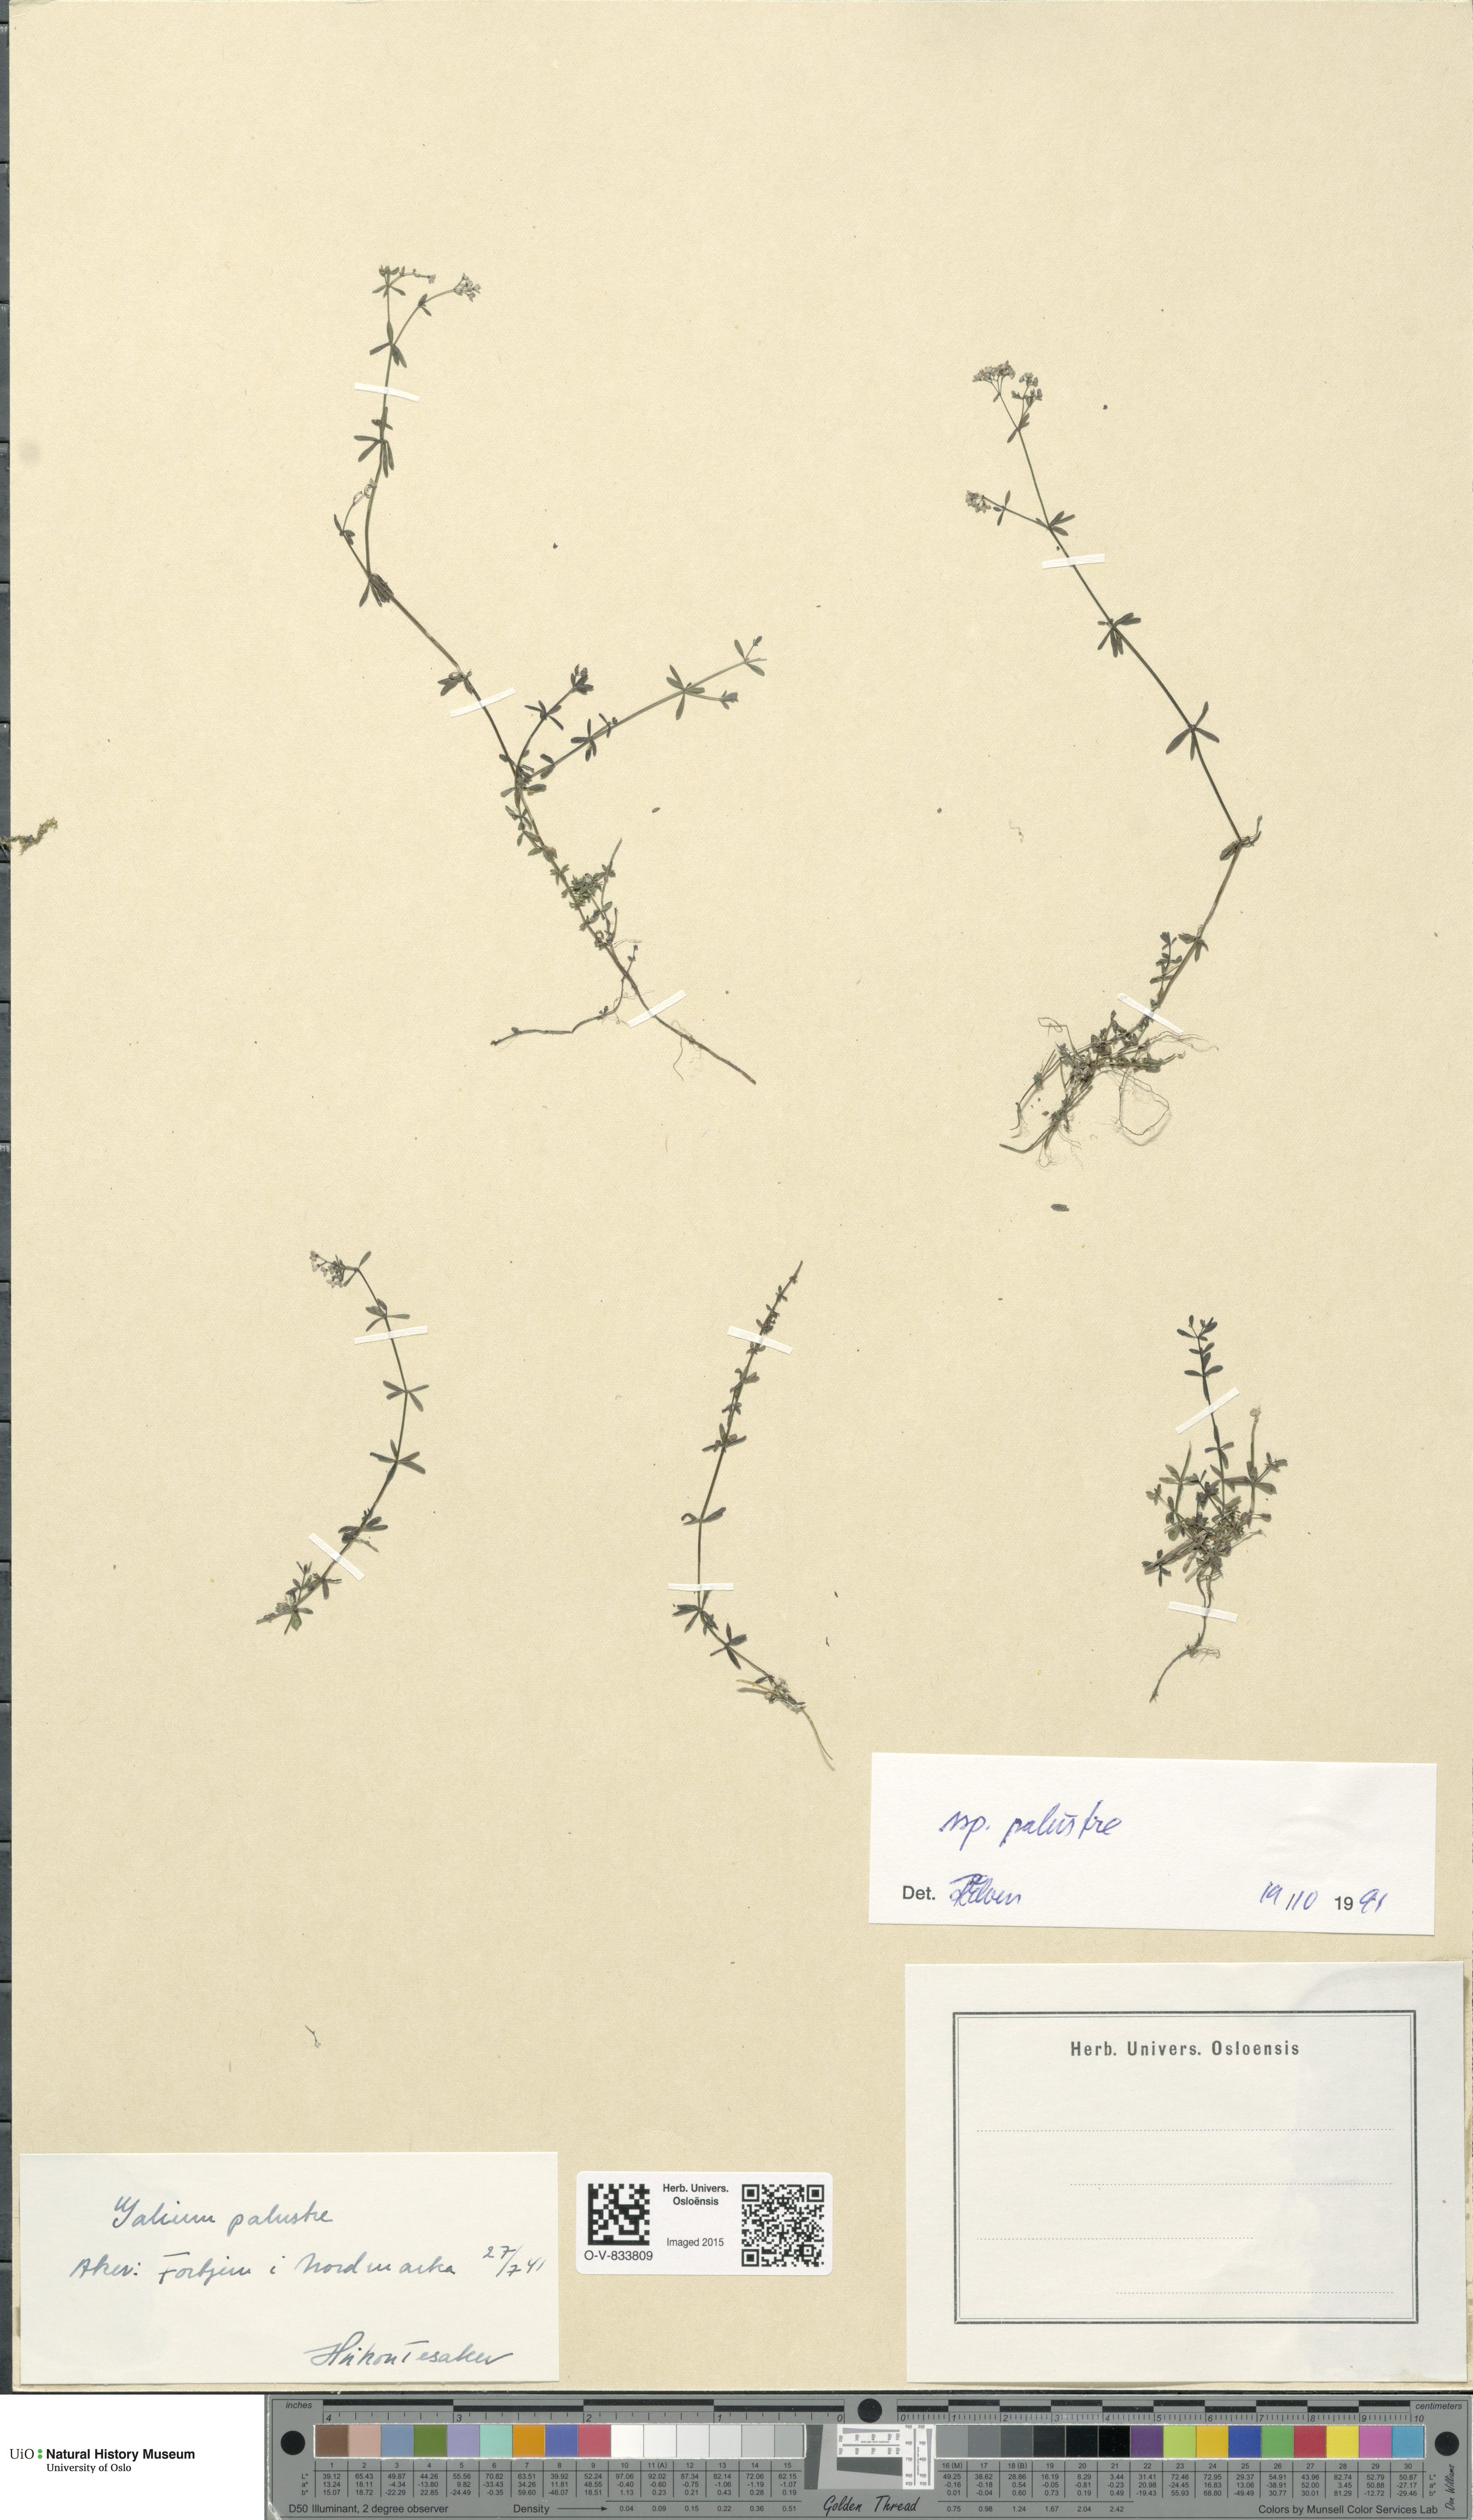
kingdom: Plantae
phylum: Tracheophyta
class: Magnoliopsida
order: Gentianales
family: Rubiaceae
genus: Galium
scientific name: Galium palustre
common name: Common marsh-bedstraw
